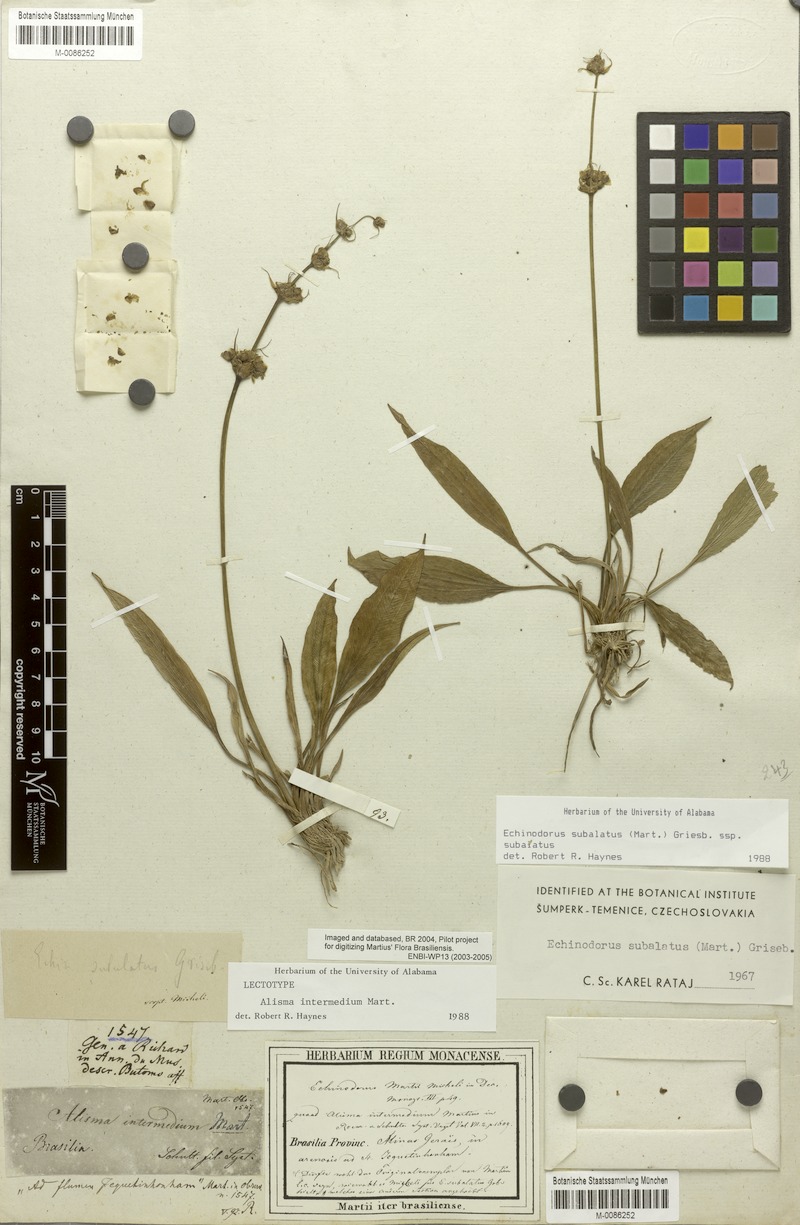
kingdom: Plantae
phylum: Tracheophyta
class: Liliopsida
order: Alismatales
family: Alismataceae
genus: Aquarius
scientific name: Aquarius subulatus
